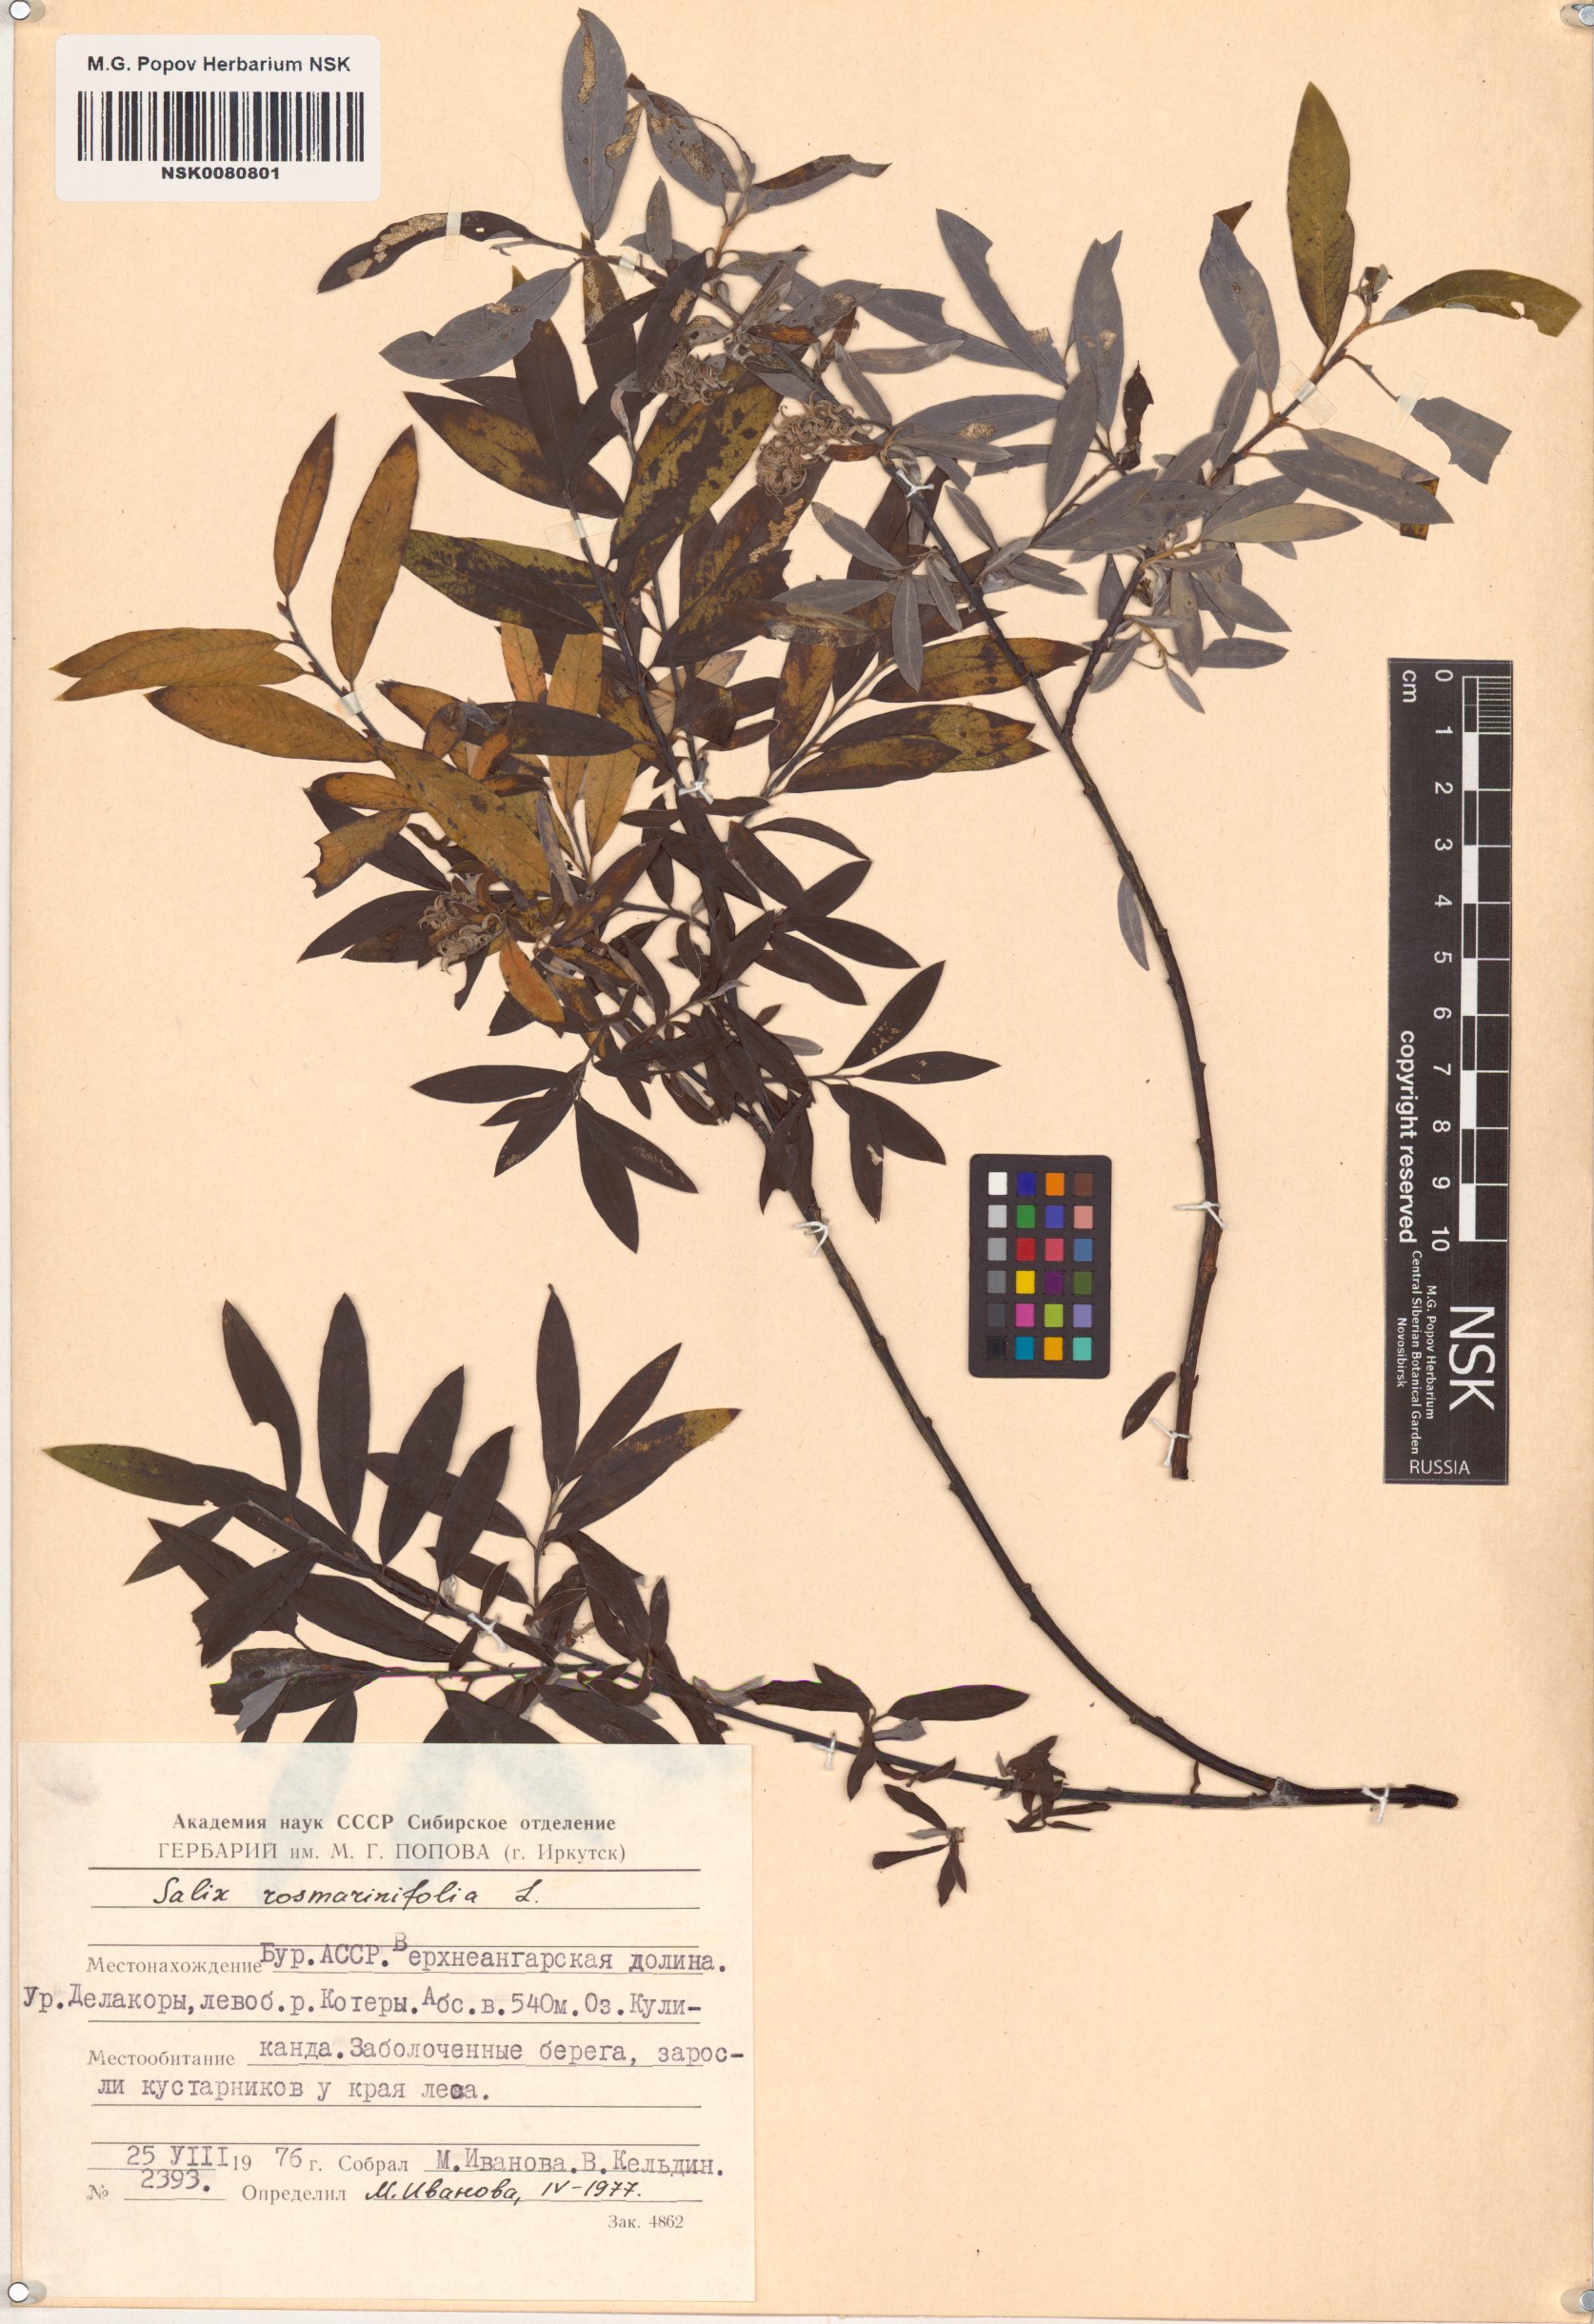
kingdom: Plantae
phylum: Tracheophyta
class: Magnoliopsida
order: Malpighiales
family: Salicaceae
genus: Salix
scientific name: Salix rosmarinifolia
